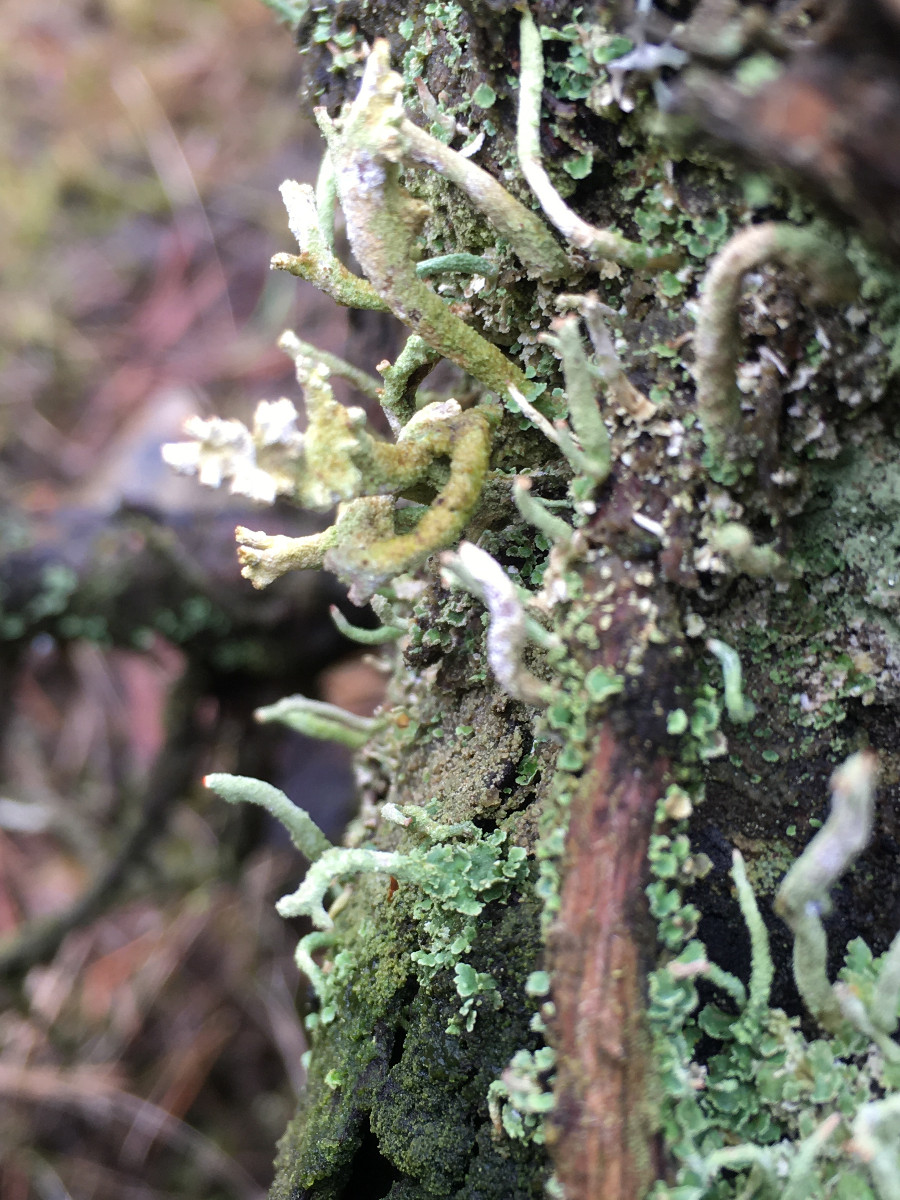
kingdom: Fungi
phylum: Ascomycota
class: Lecanoromycetes
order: Lecanorales
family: Cladoniaceae
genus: Cladonia
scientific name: Cladonia
